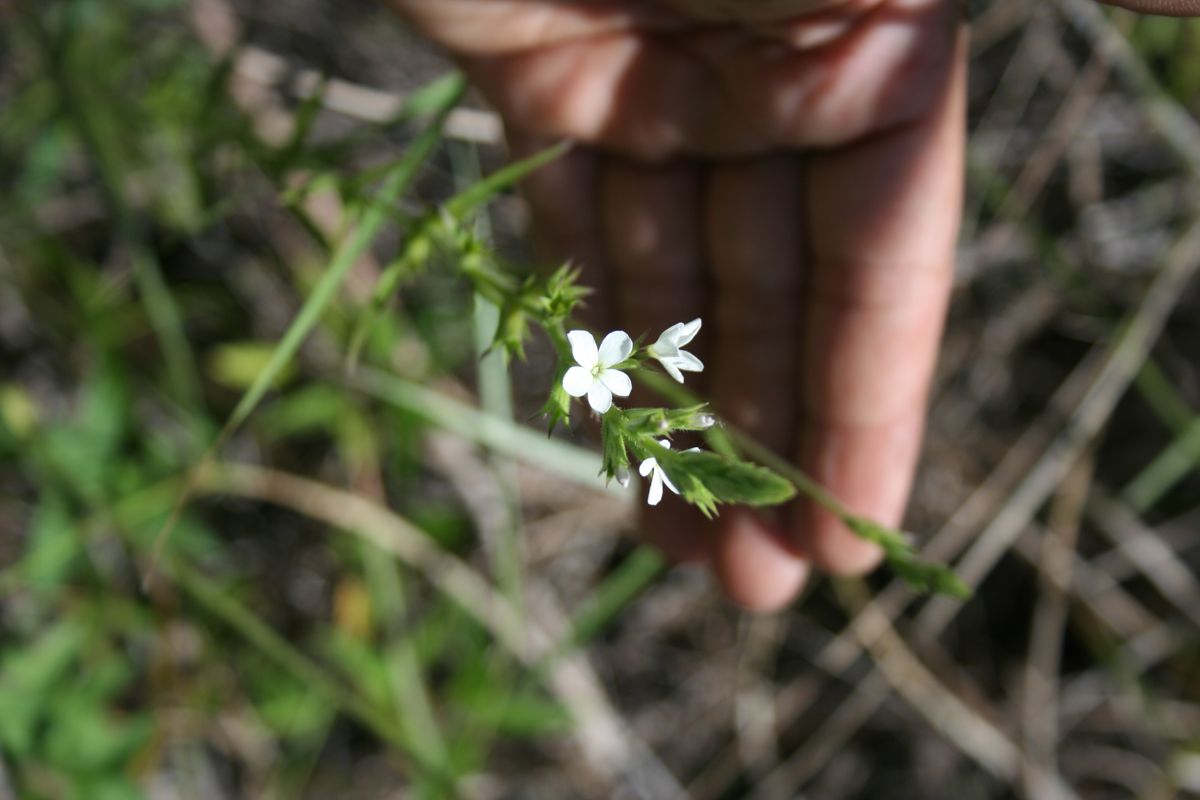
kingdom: Plantae
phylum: Tracheophyta
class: Magnoliopsida
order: Lamiales
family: Orobanchaceae
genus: Buchnera
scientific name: Buchnera pusilla
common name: Pygmy bluehearts
